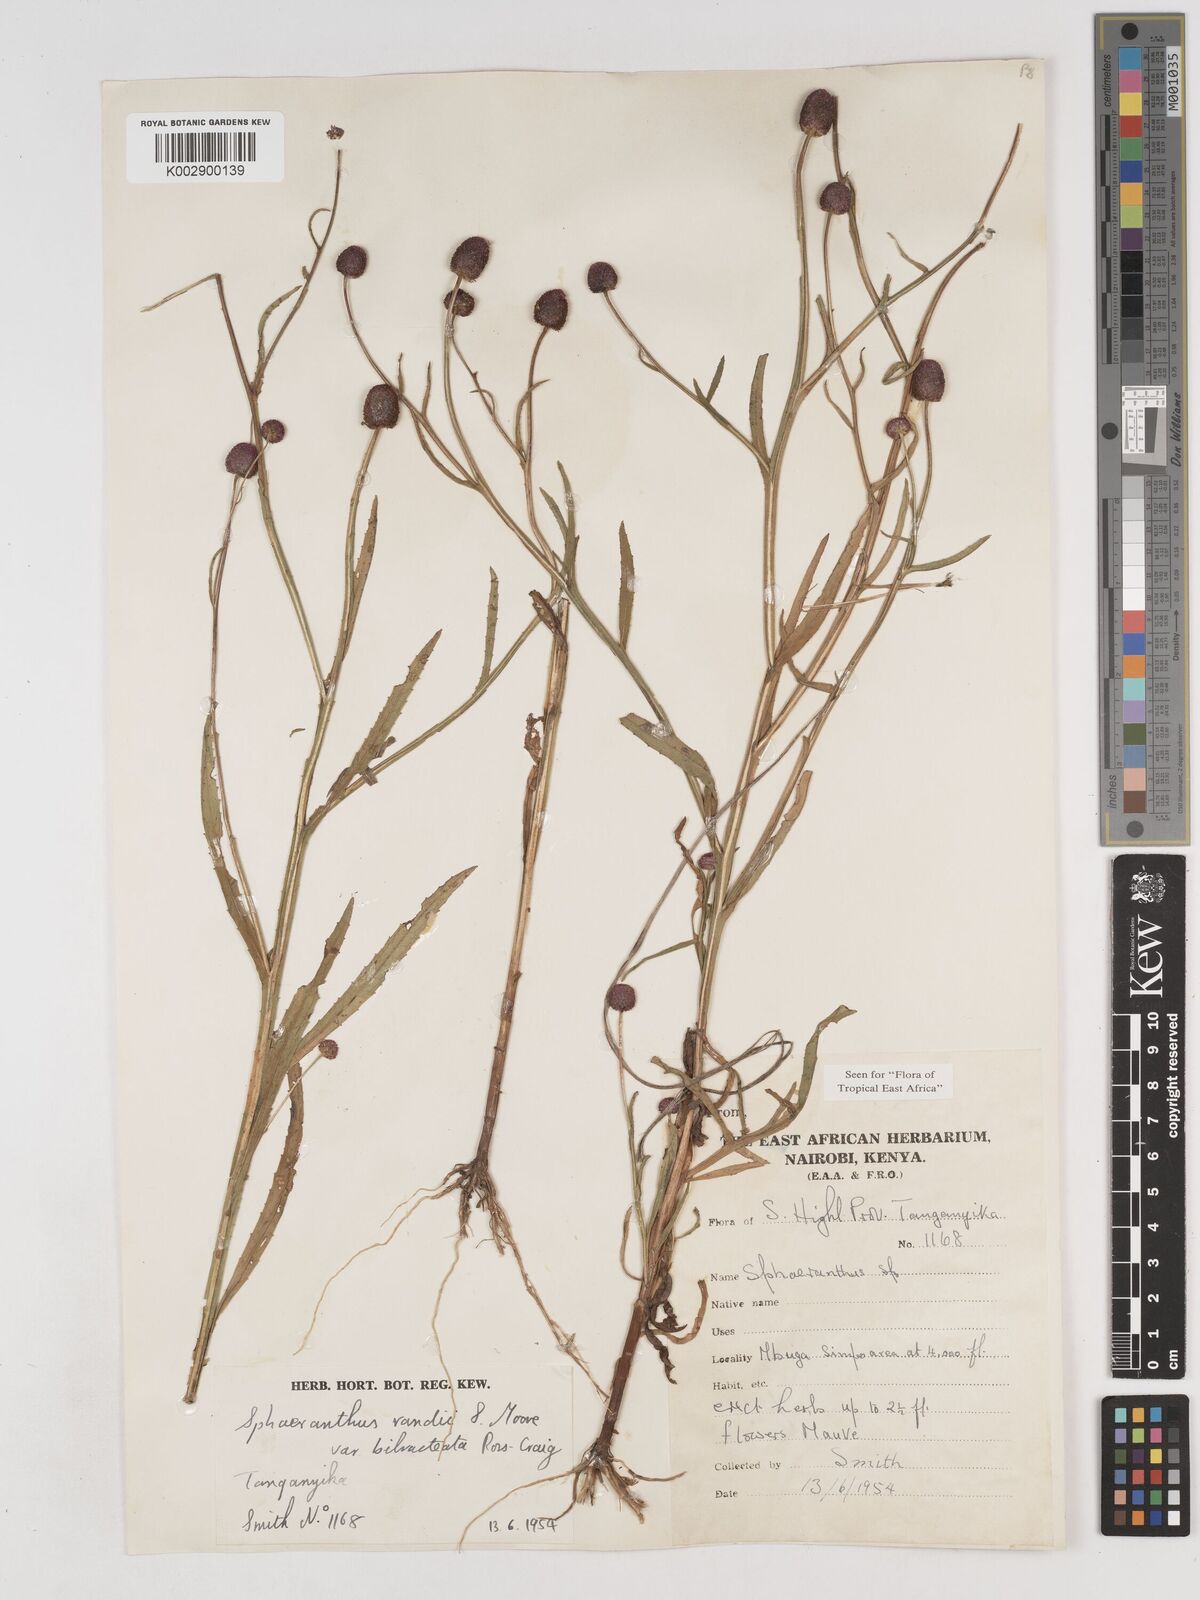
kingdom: Plantae
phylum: Tracheophyta
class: Magnoliopsida
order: Asterales
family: Asteraceae
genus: Sphaeranthus
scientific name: Sphaeranthus randii
